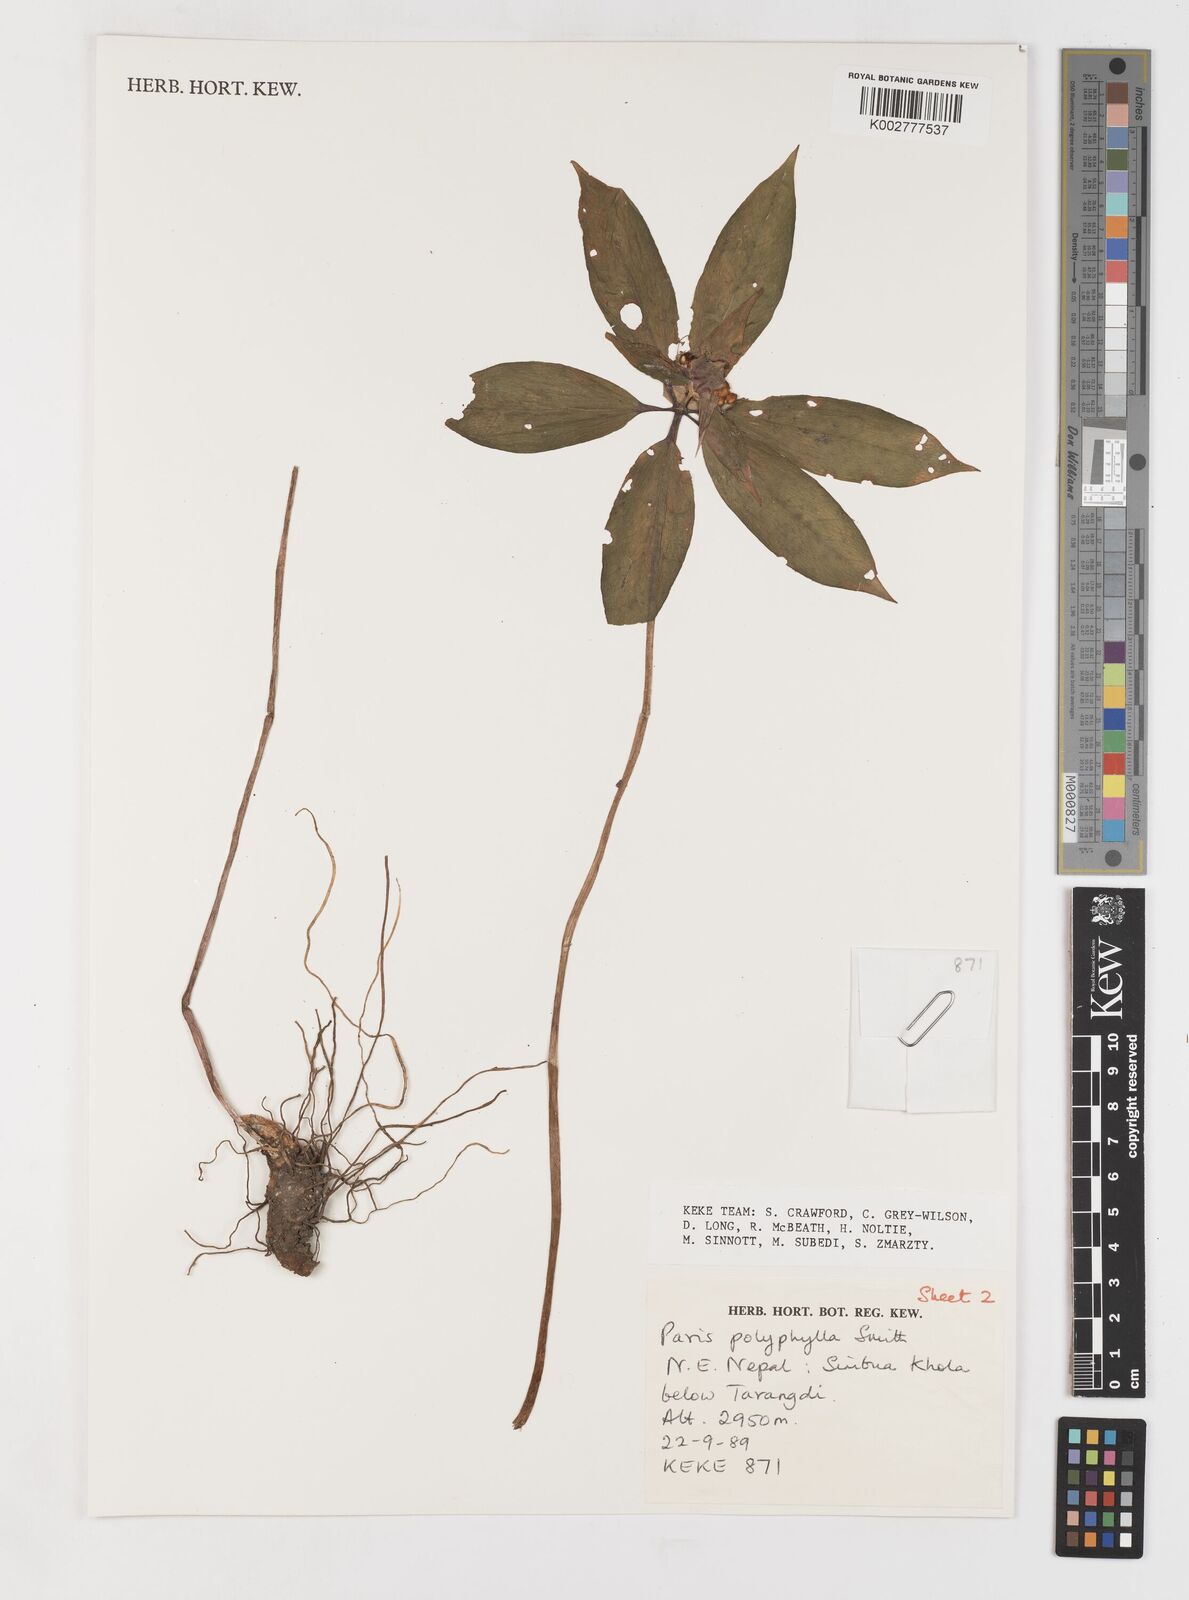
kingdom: Plantae
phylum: Tracheophyta
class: Liliopsida
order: Liliales
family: Melanthiaceae
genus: Paris
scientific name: Paris polyphylla
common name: Love apple
